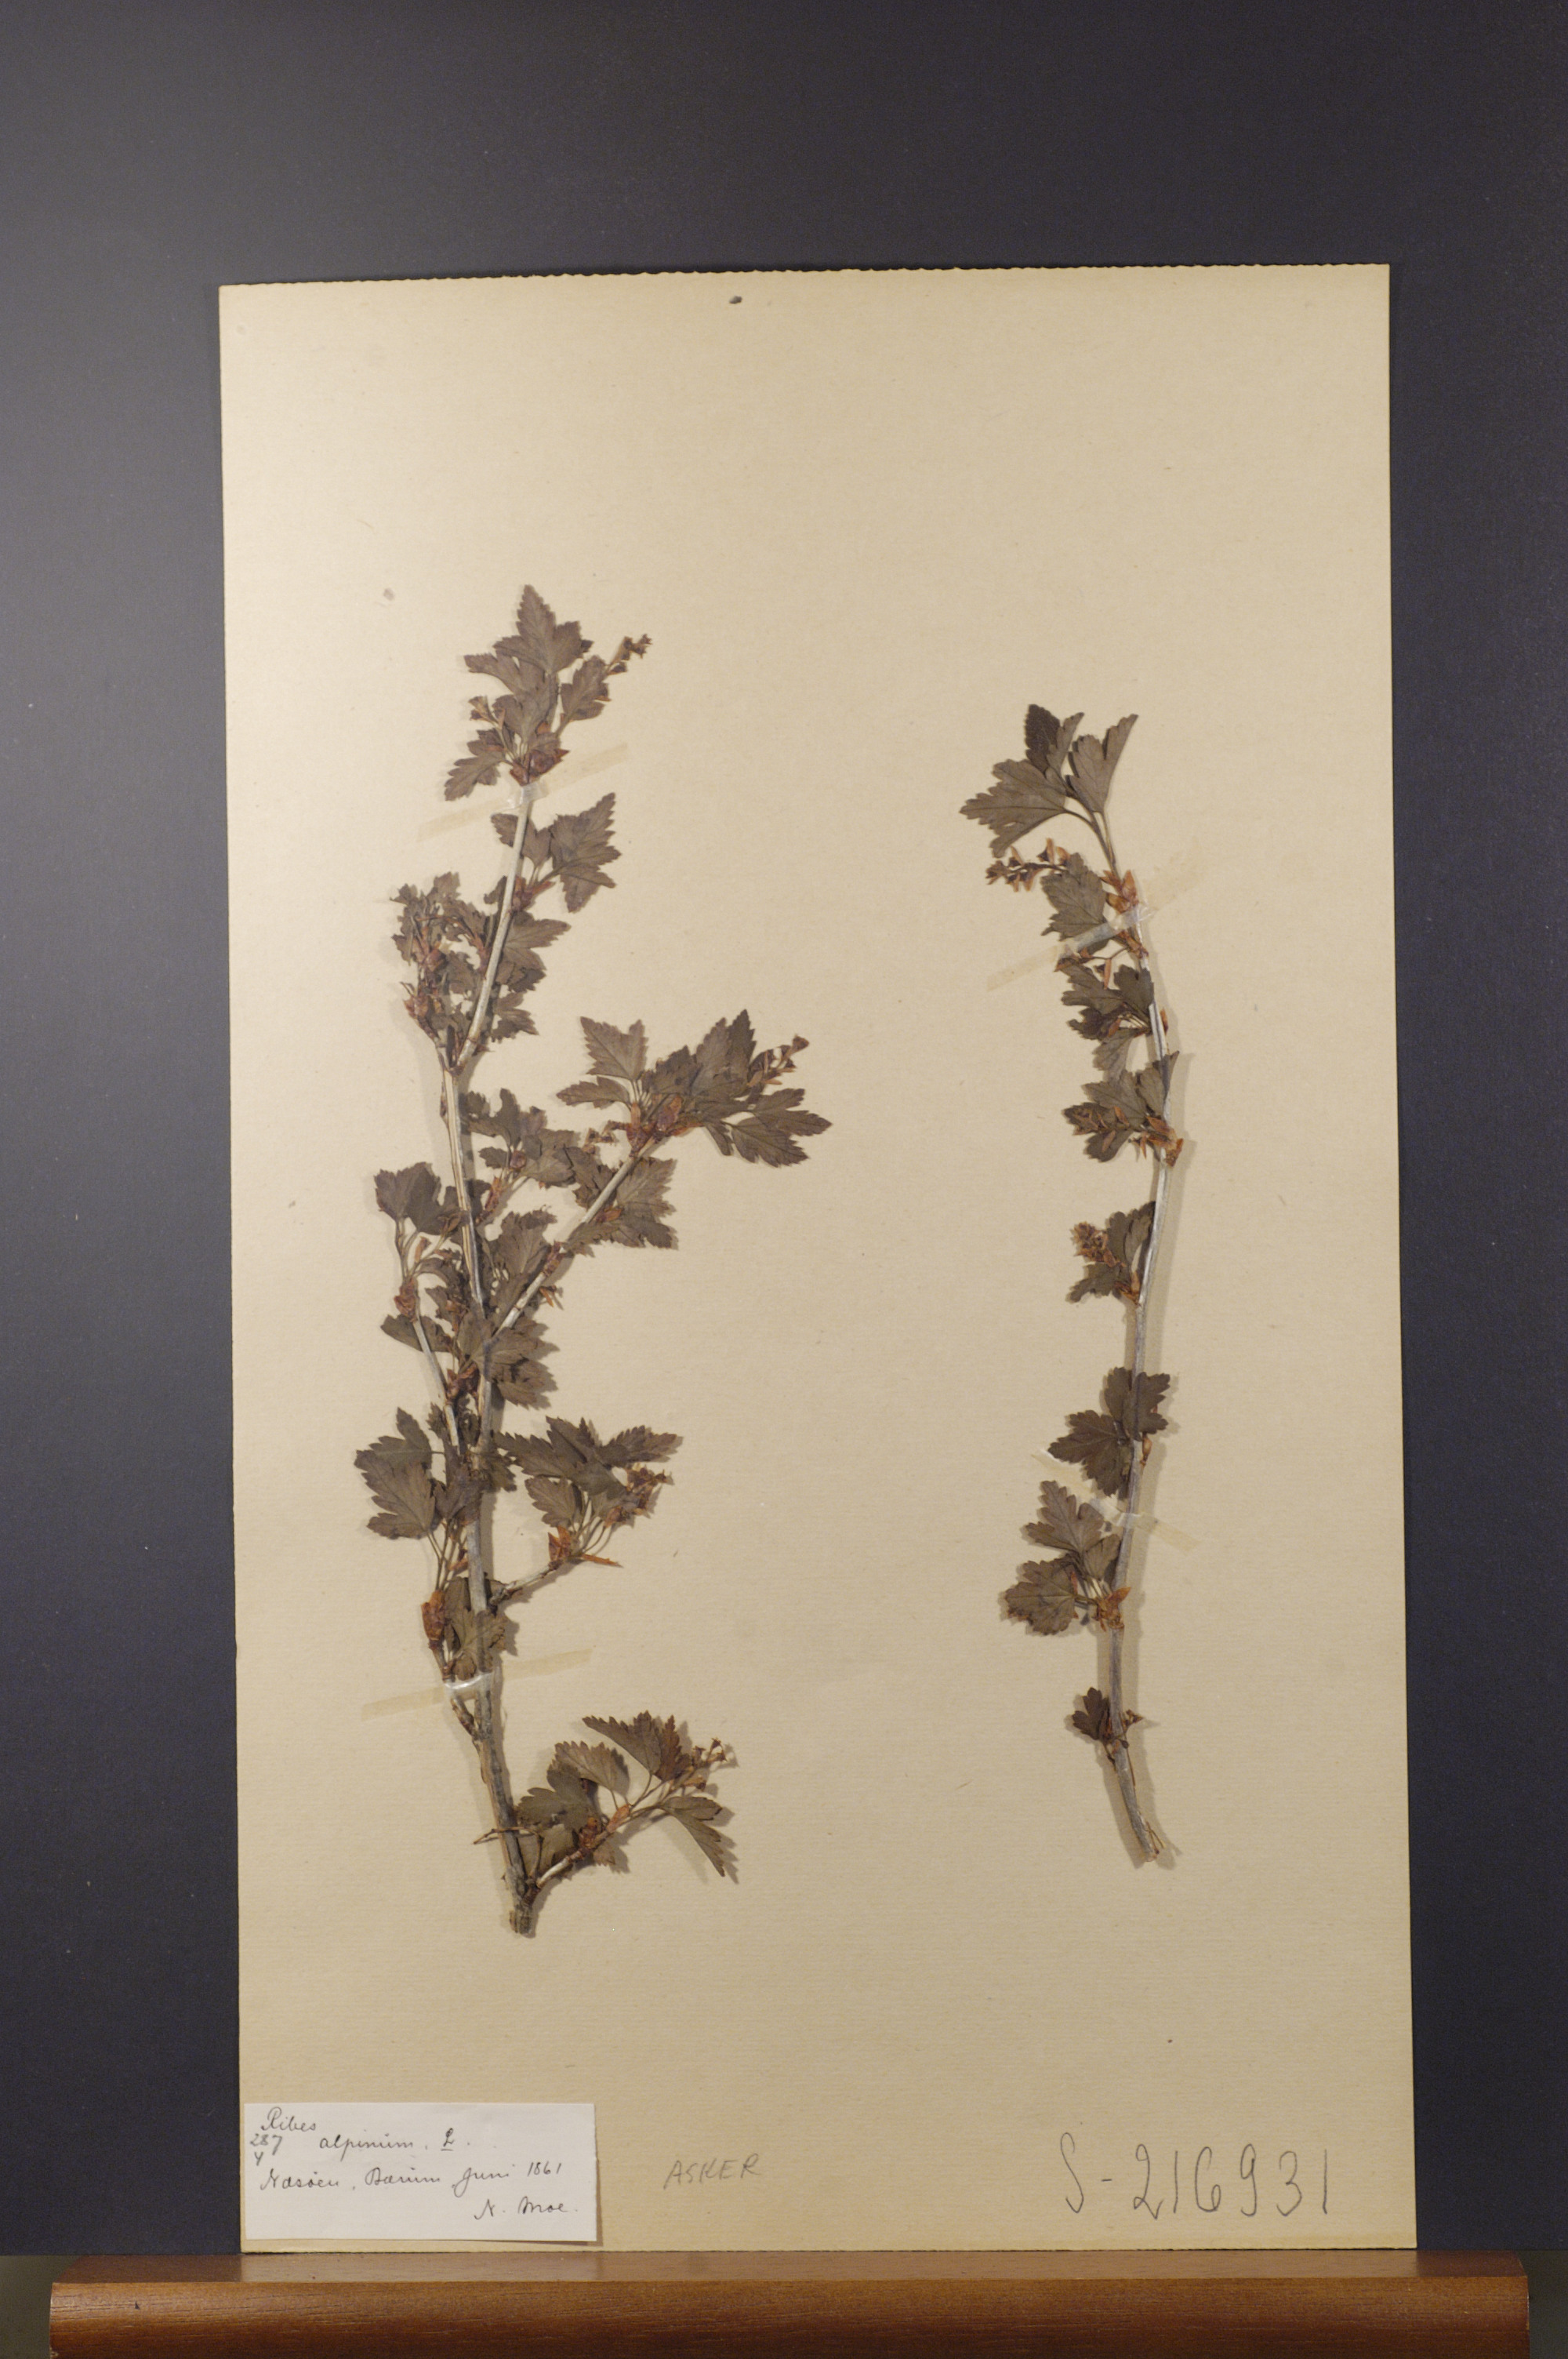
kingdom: Plantae
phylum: Tracheophyta
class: Magnoliopsida
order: Saxifragales
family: Grossulariaceae
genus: Ribes
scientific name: Ribes alpinum
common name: Alpine currant
